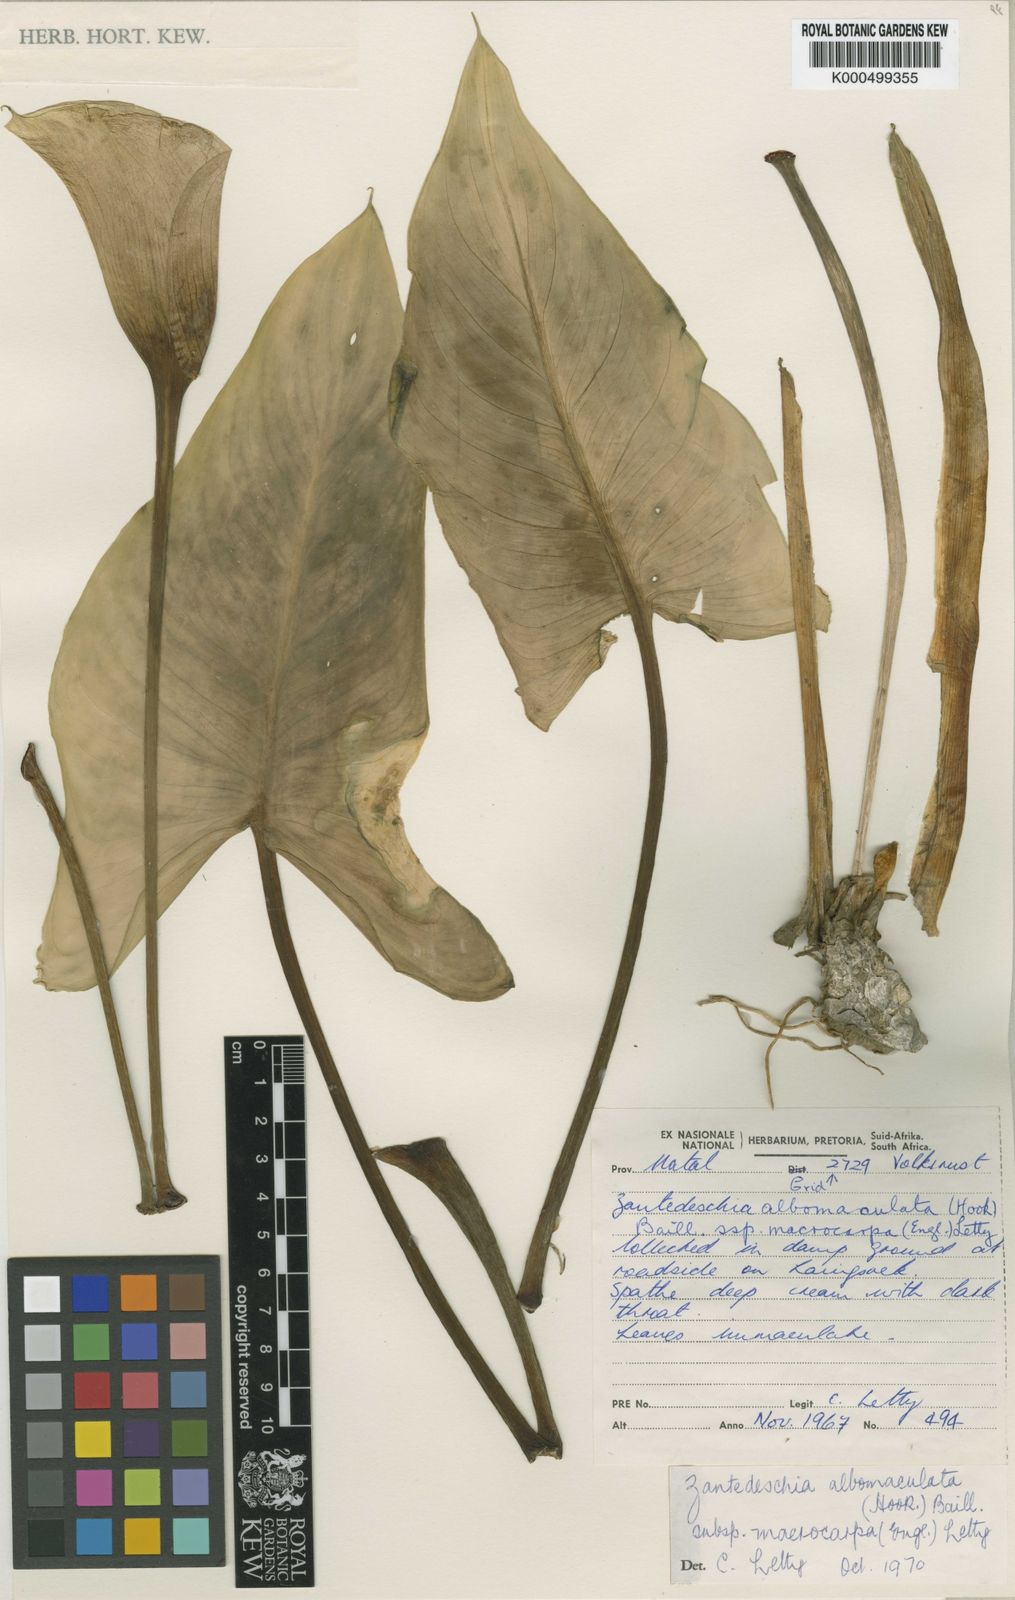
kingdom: Plantae
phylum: Tracheophyta
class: Liliopsida
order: Alismatales
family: Araceae
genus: Zantedeschia
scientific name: Zantedeschia albomaculata
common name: Spotted calla lily
